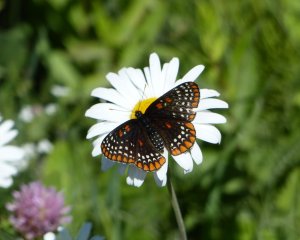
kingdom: Animalia
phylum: Arthropoda
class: Insecta
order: Lepidoptera
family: Nymphalidae
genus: Euphydryas
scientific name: Euphydryas phaeton
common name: Baltimore Checkerspot
